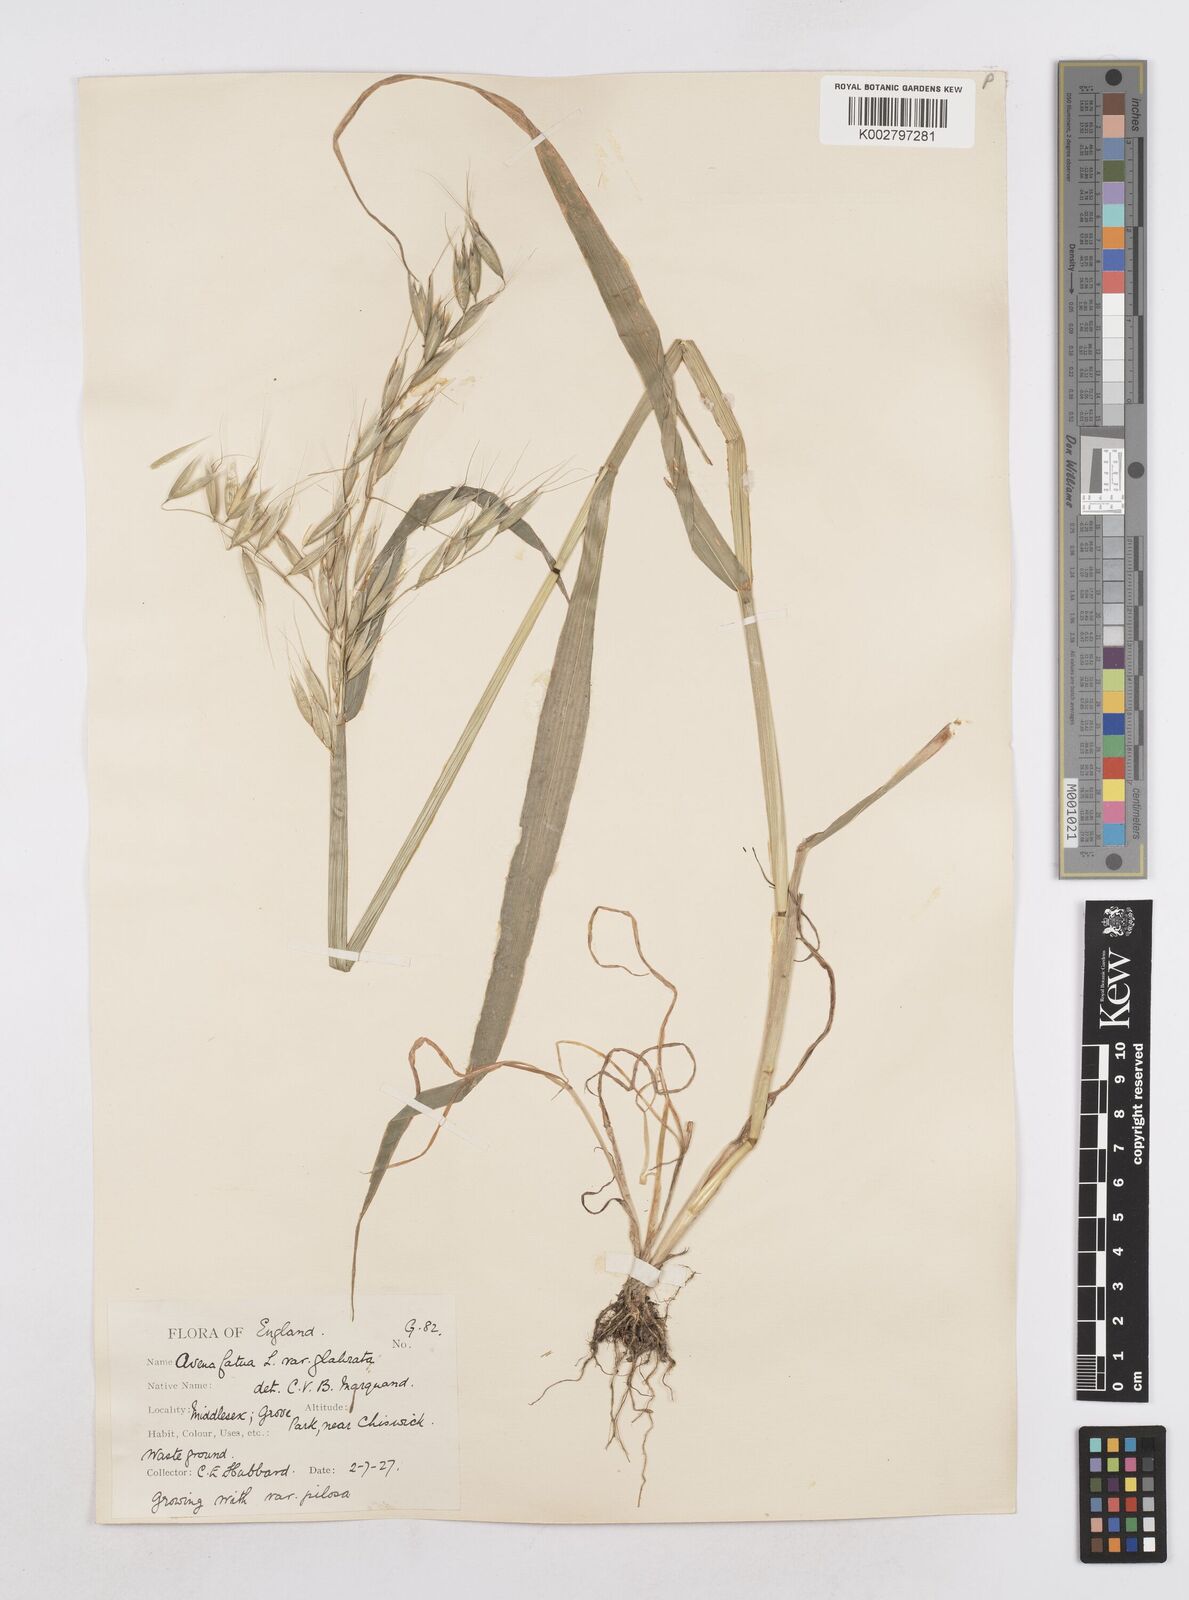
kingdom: Plantae
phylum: Tracheophyta
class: Liliopsida
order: Poales
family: Poaceae
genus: Avena
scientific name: Avena fatua
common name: Wild oat
